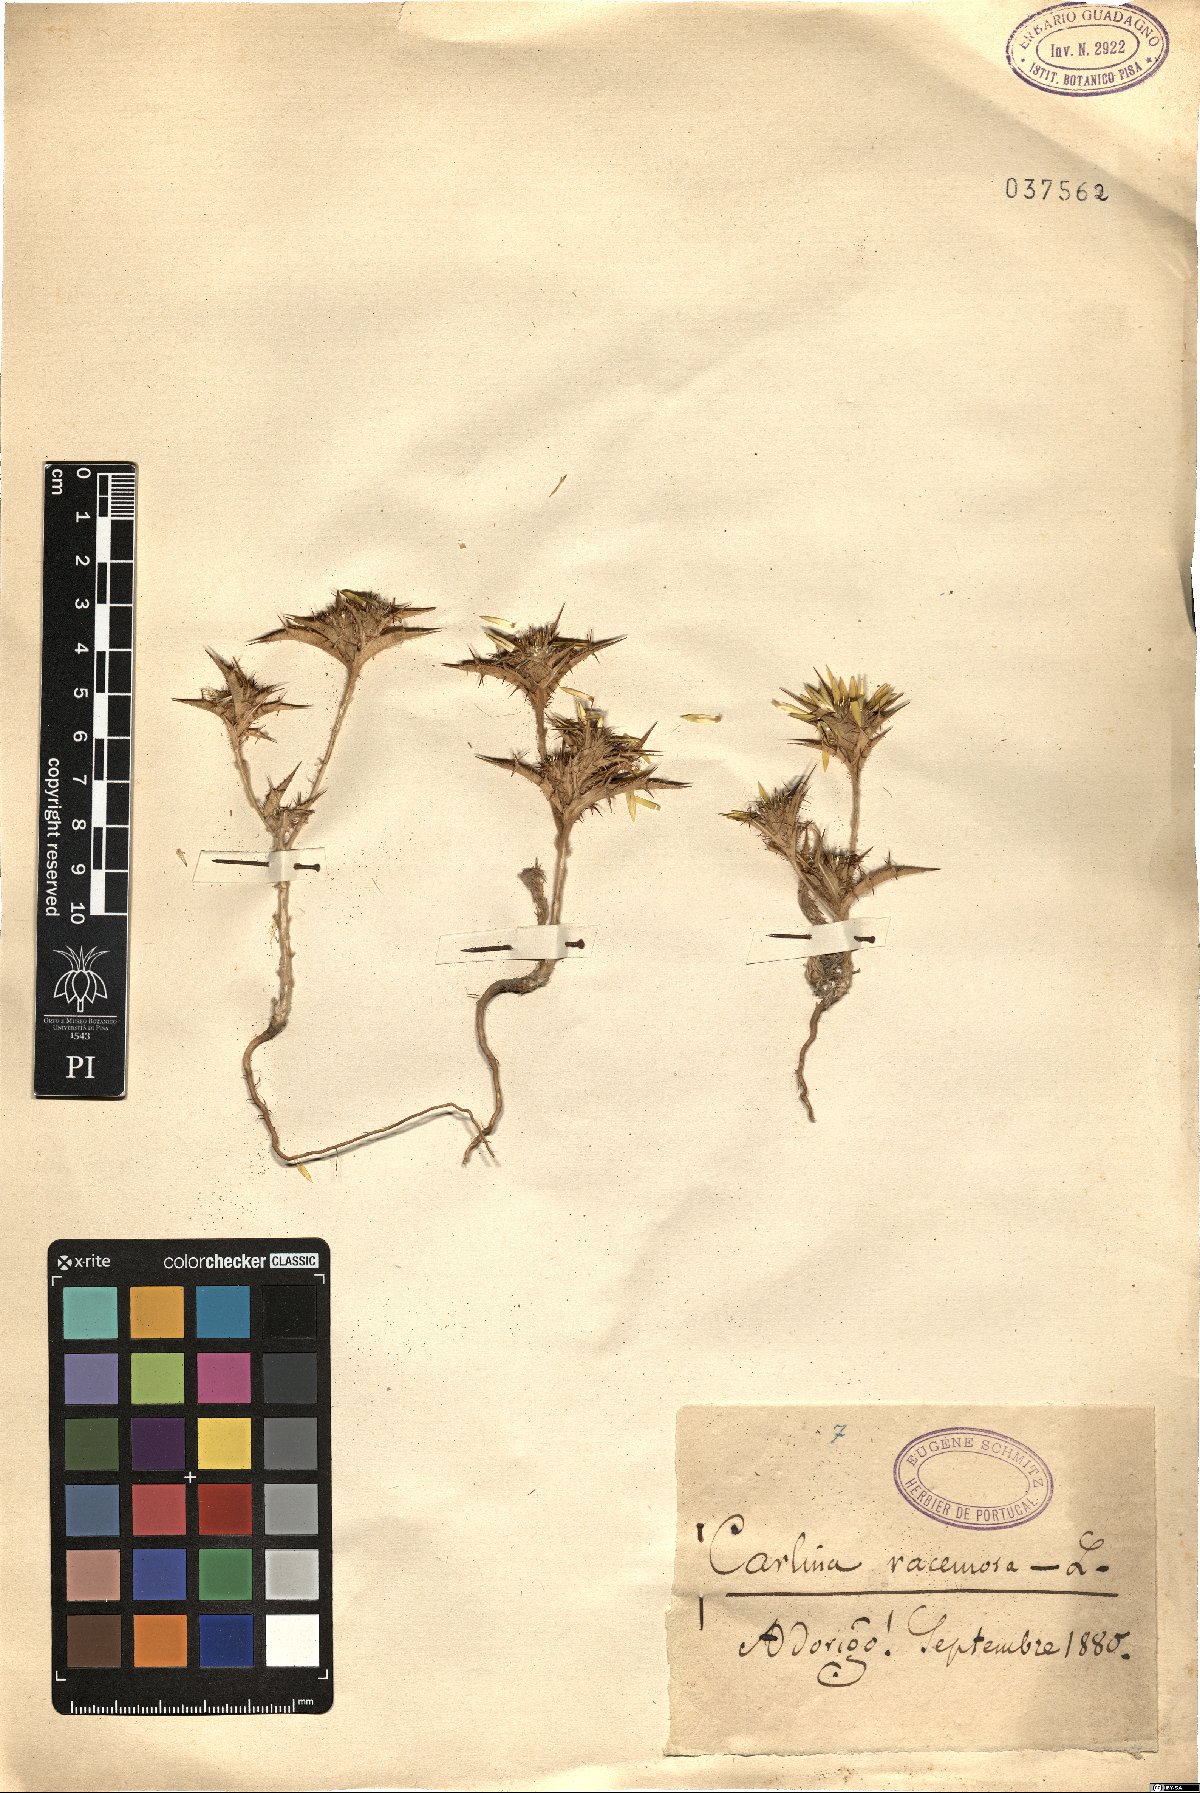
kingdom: Plantae
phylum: Tracheophyta
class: Magnoliopsida
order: Asterales
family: Asteraceae
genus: Carlina
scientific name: Carlina racemosa
